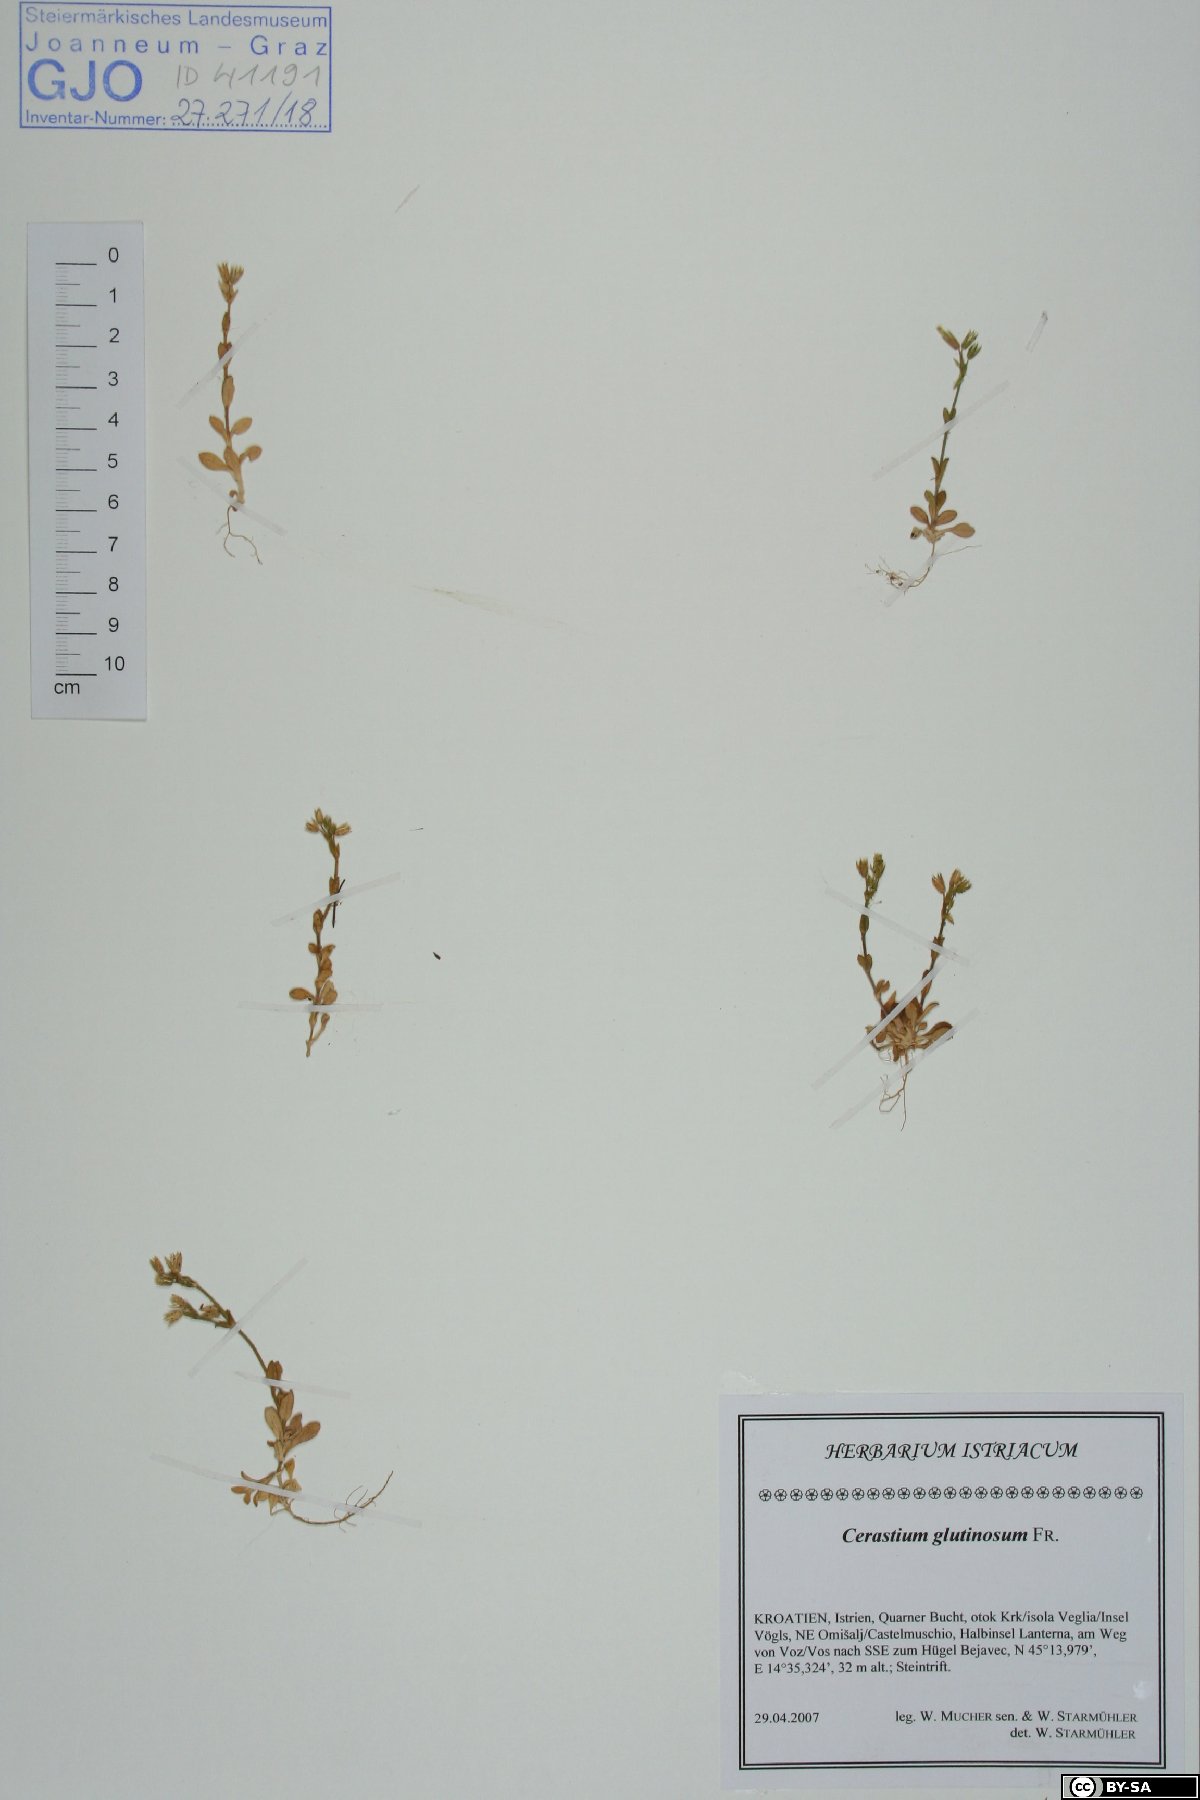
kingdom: Plantae
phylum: Tracheophyta
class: Magnoliopsida
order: Caryophyllales
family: Caryophyllaceae
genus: Cerastium
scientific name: Cerastium glutinosum
